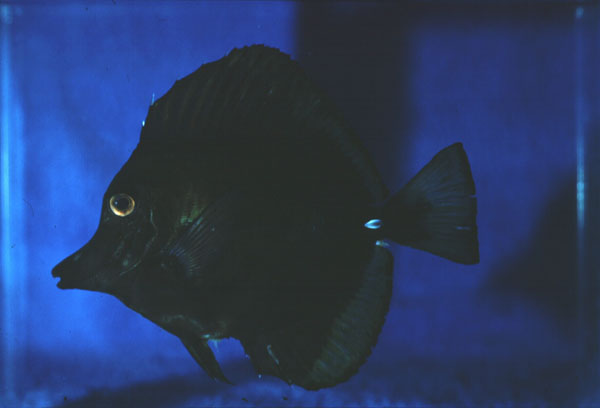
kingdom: Animalia
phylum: Chordata
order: Perciformes
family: Acanthuridae
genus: Zebrasoma
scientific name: Zebrasoma scopas
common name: Twotone tang
